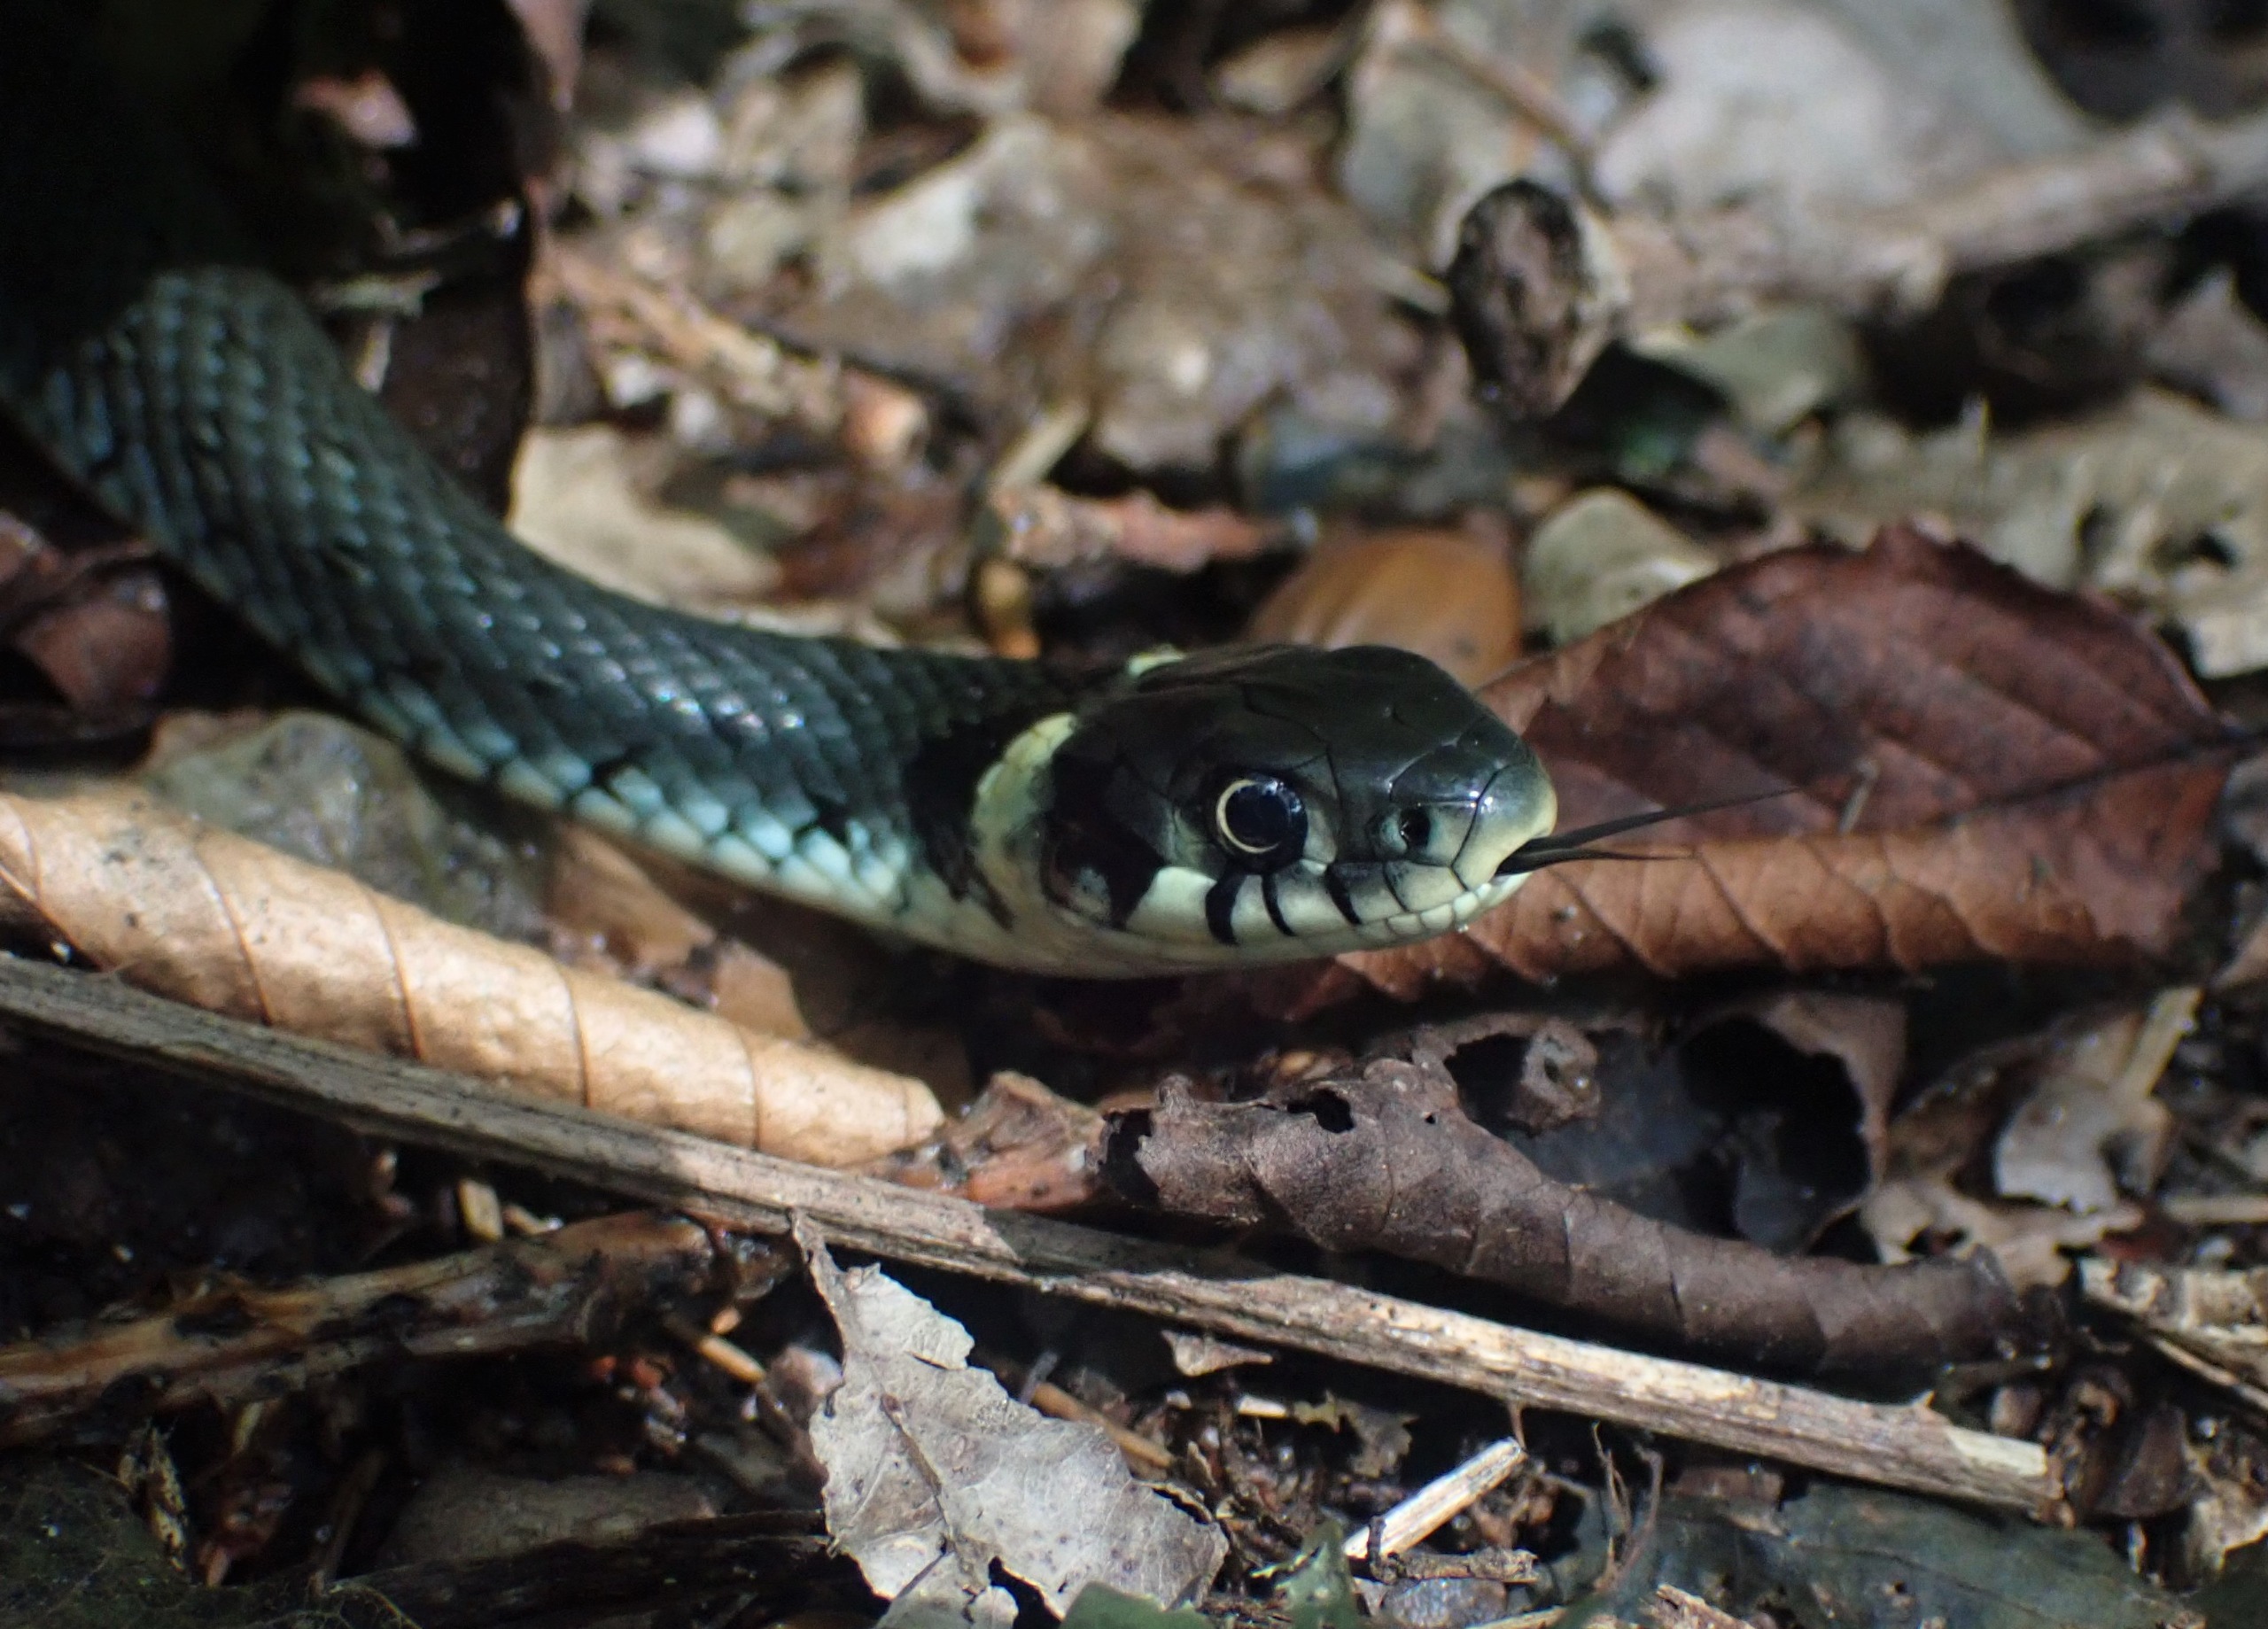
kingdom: Animalia
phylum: Chordata
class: Squamata
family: Colubridae
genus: Natrix
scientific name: Natrix natrix
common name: Snog
